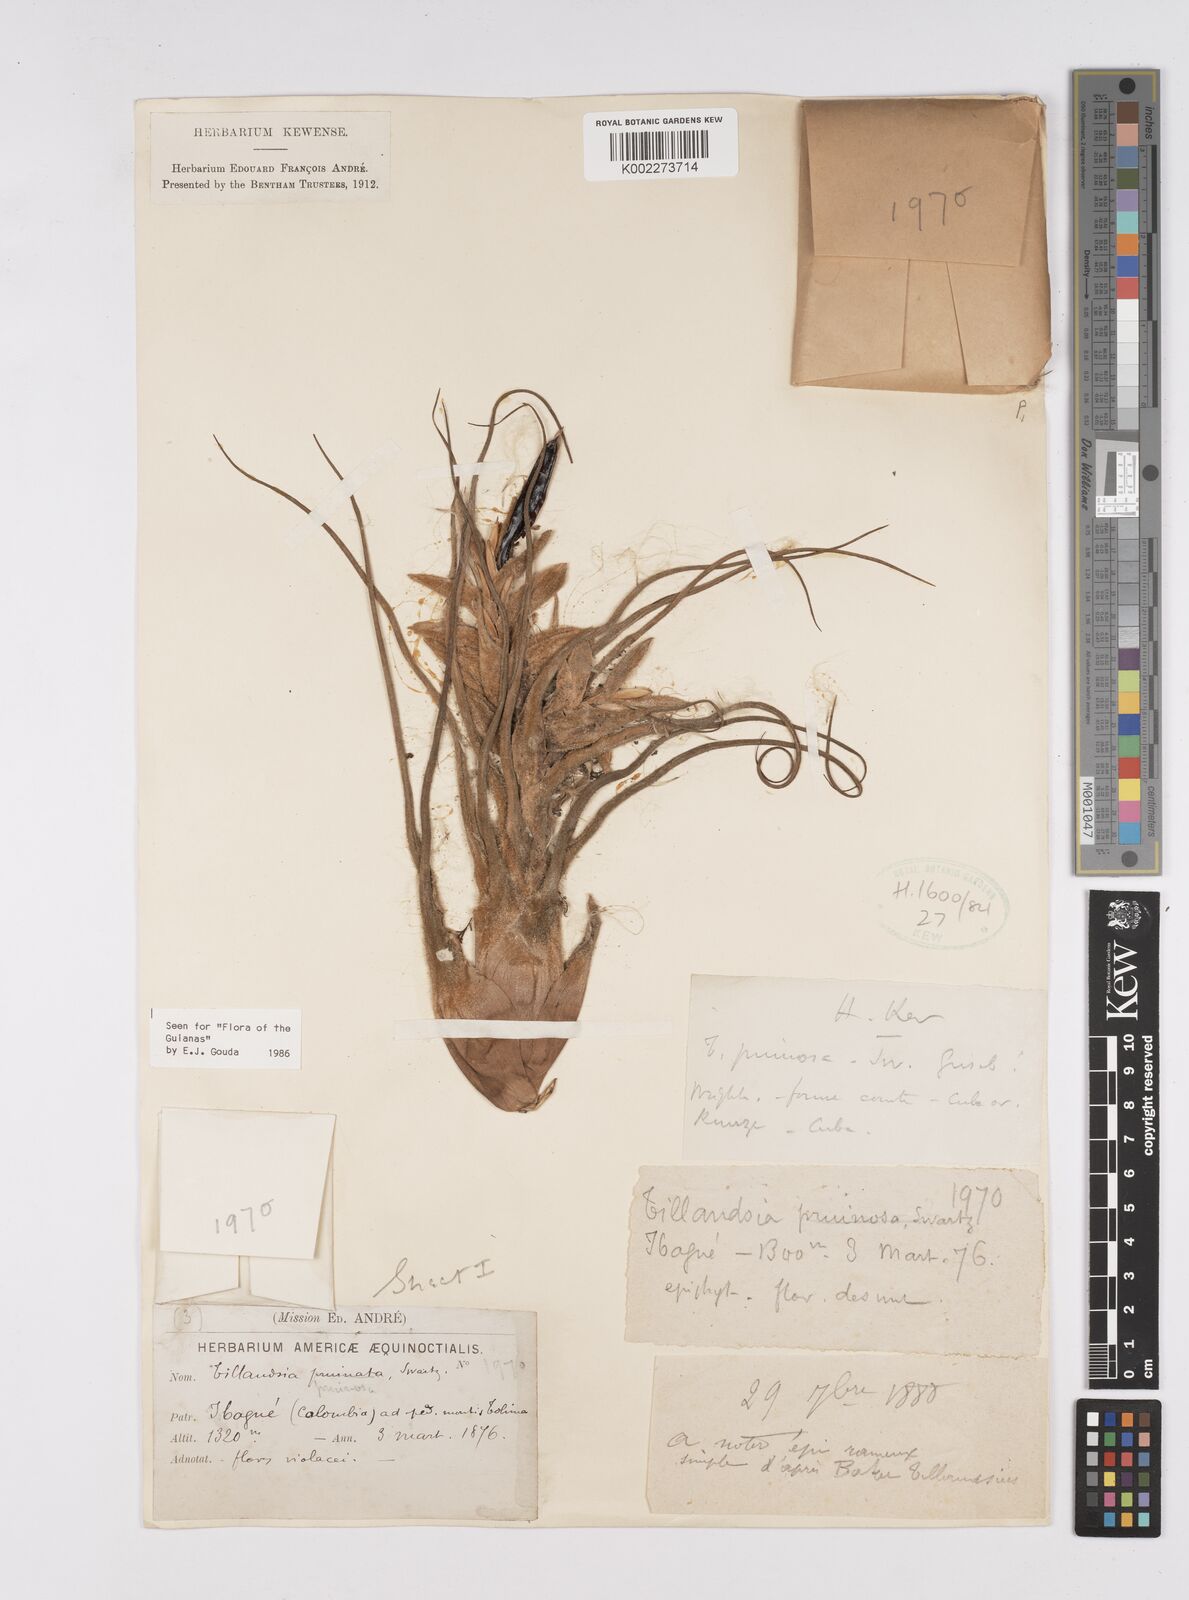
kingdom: Plantae
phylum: Tracheophyta
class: Liliopsida
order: Poales
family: Bromeliaceae
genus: Tillandsia
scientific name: Tillandsia pruinosa
